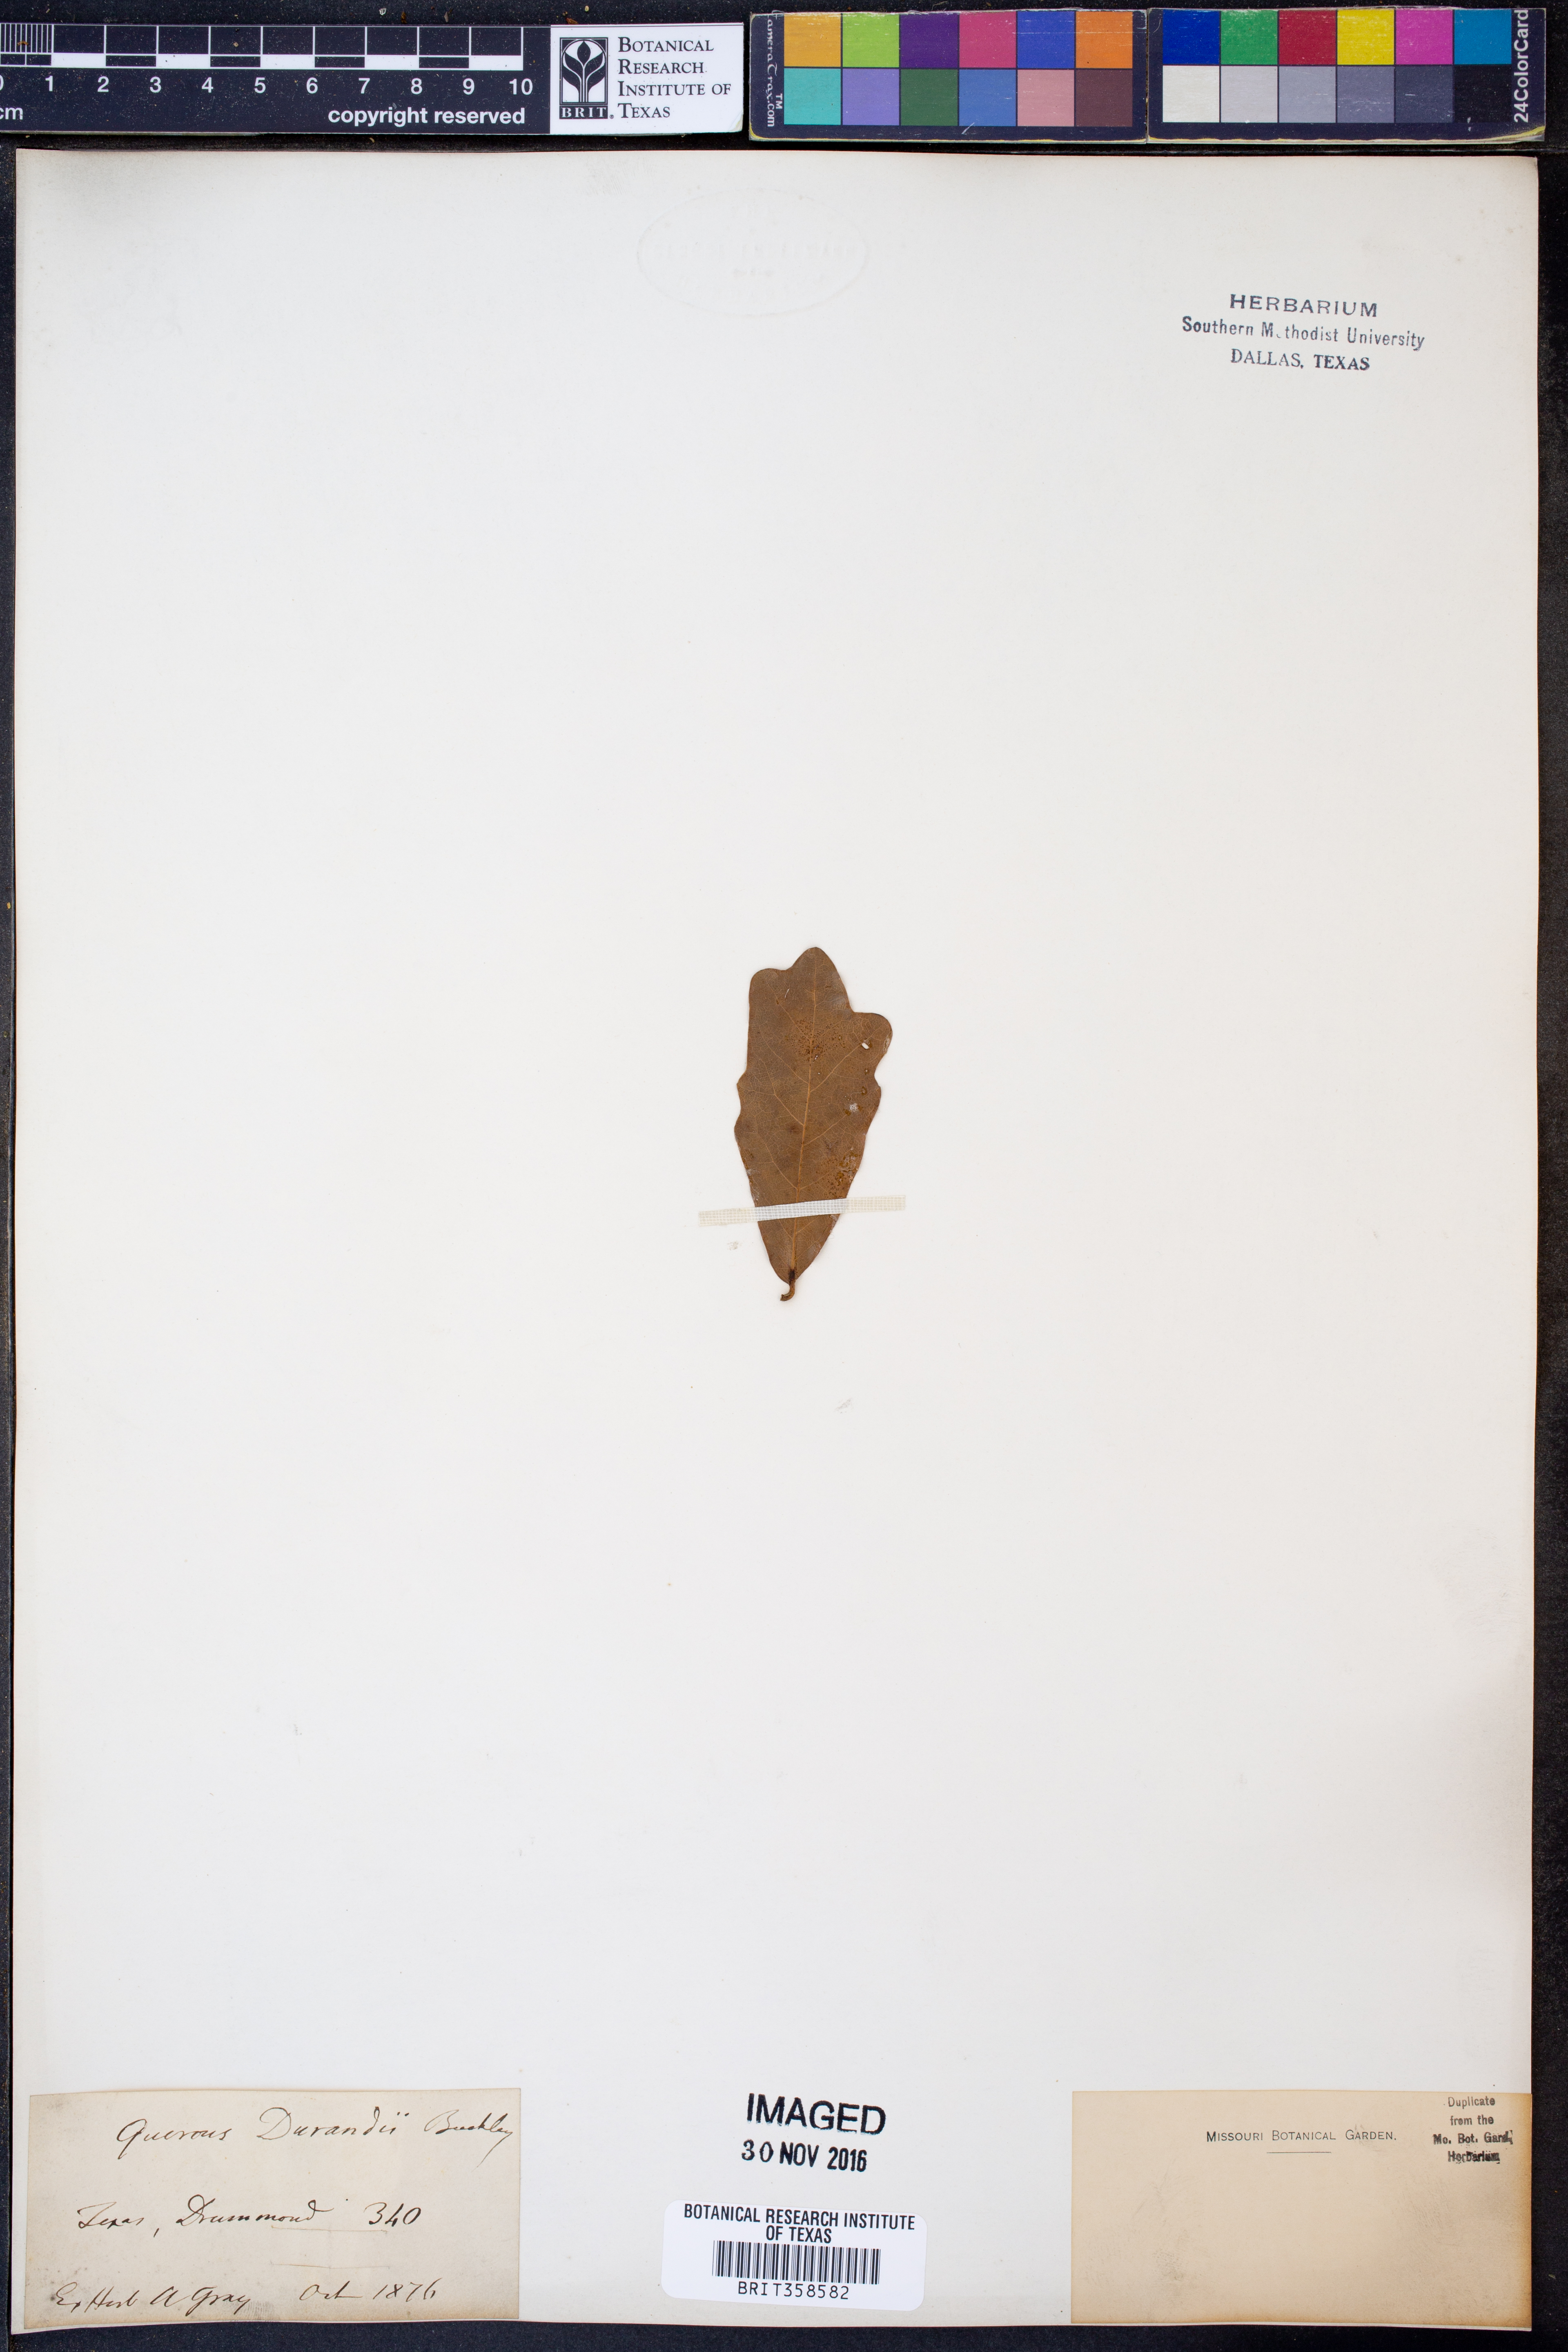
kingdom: Plantae
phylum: Tracheophyta
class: Magnoliopsida
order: Fagales
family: Fagaceae
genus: Quercus
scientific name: Quercus sinuata
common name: Durand oak
